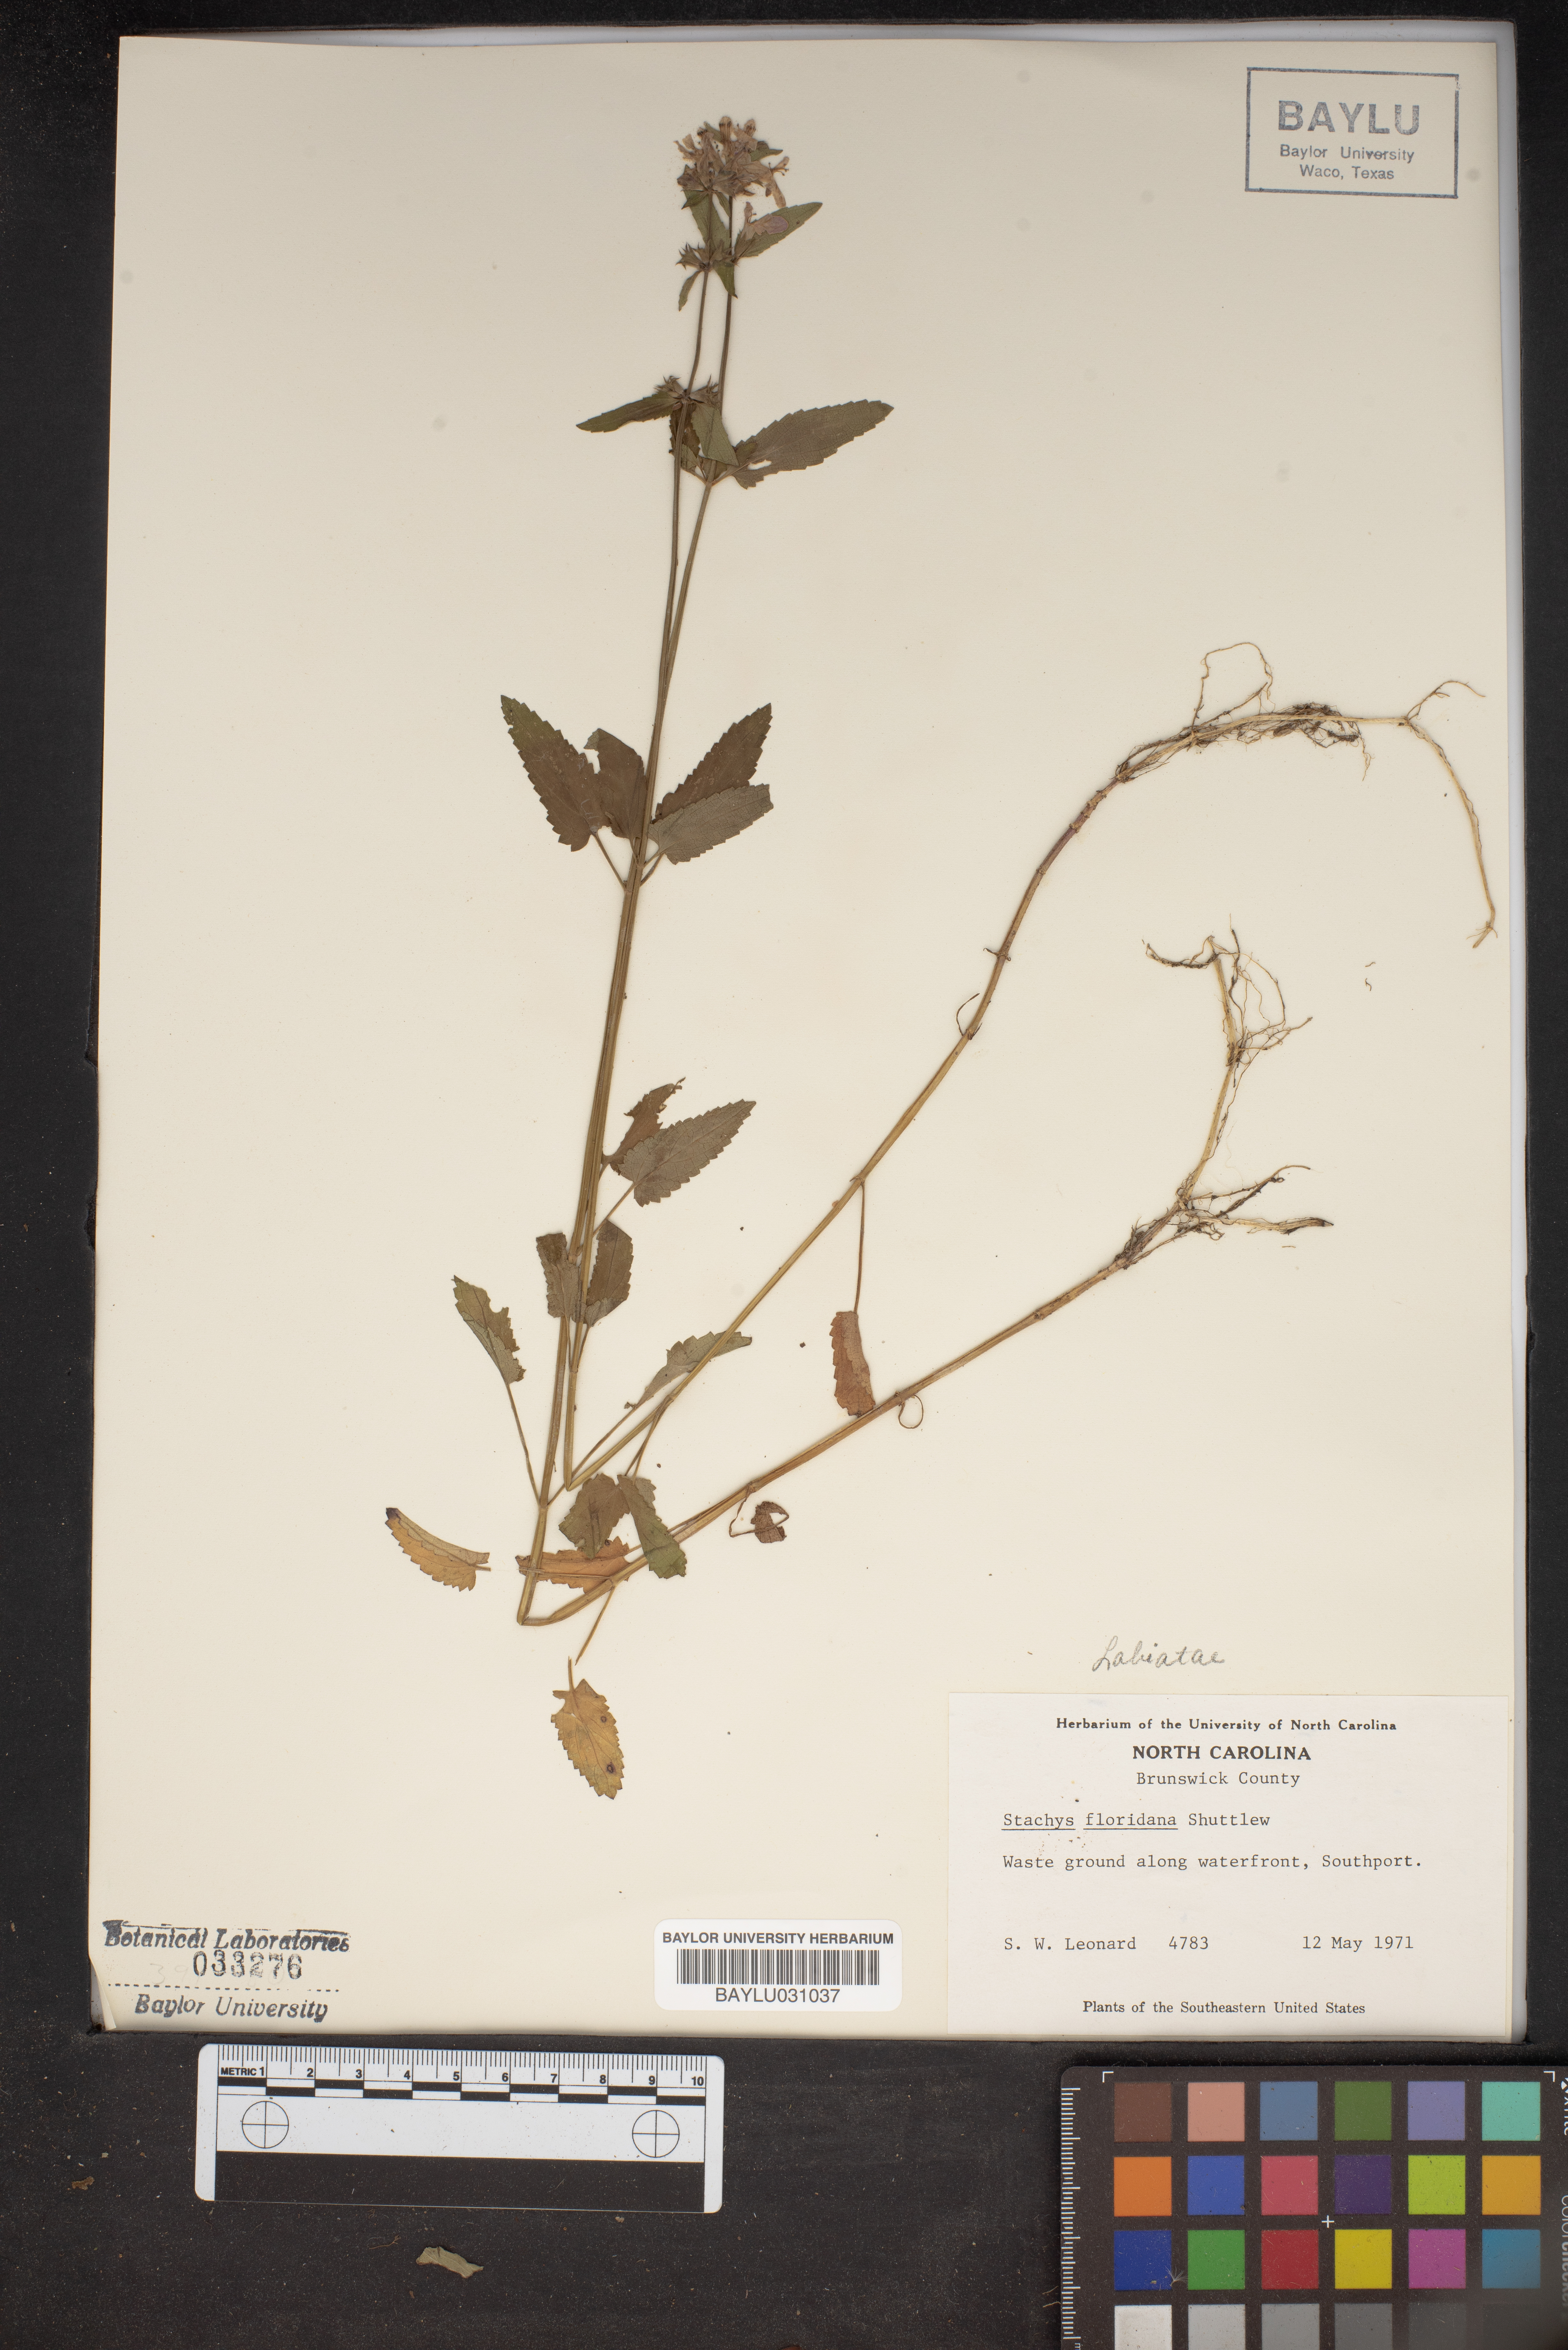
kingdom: Plantae
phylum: Tracheophyta
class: Magnoliopsida
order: Lamiales
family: Lamiaceae
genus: Stachys
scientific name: Stachys floridana
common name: Florida betony
